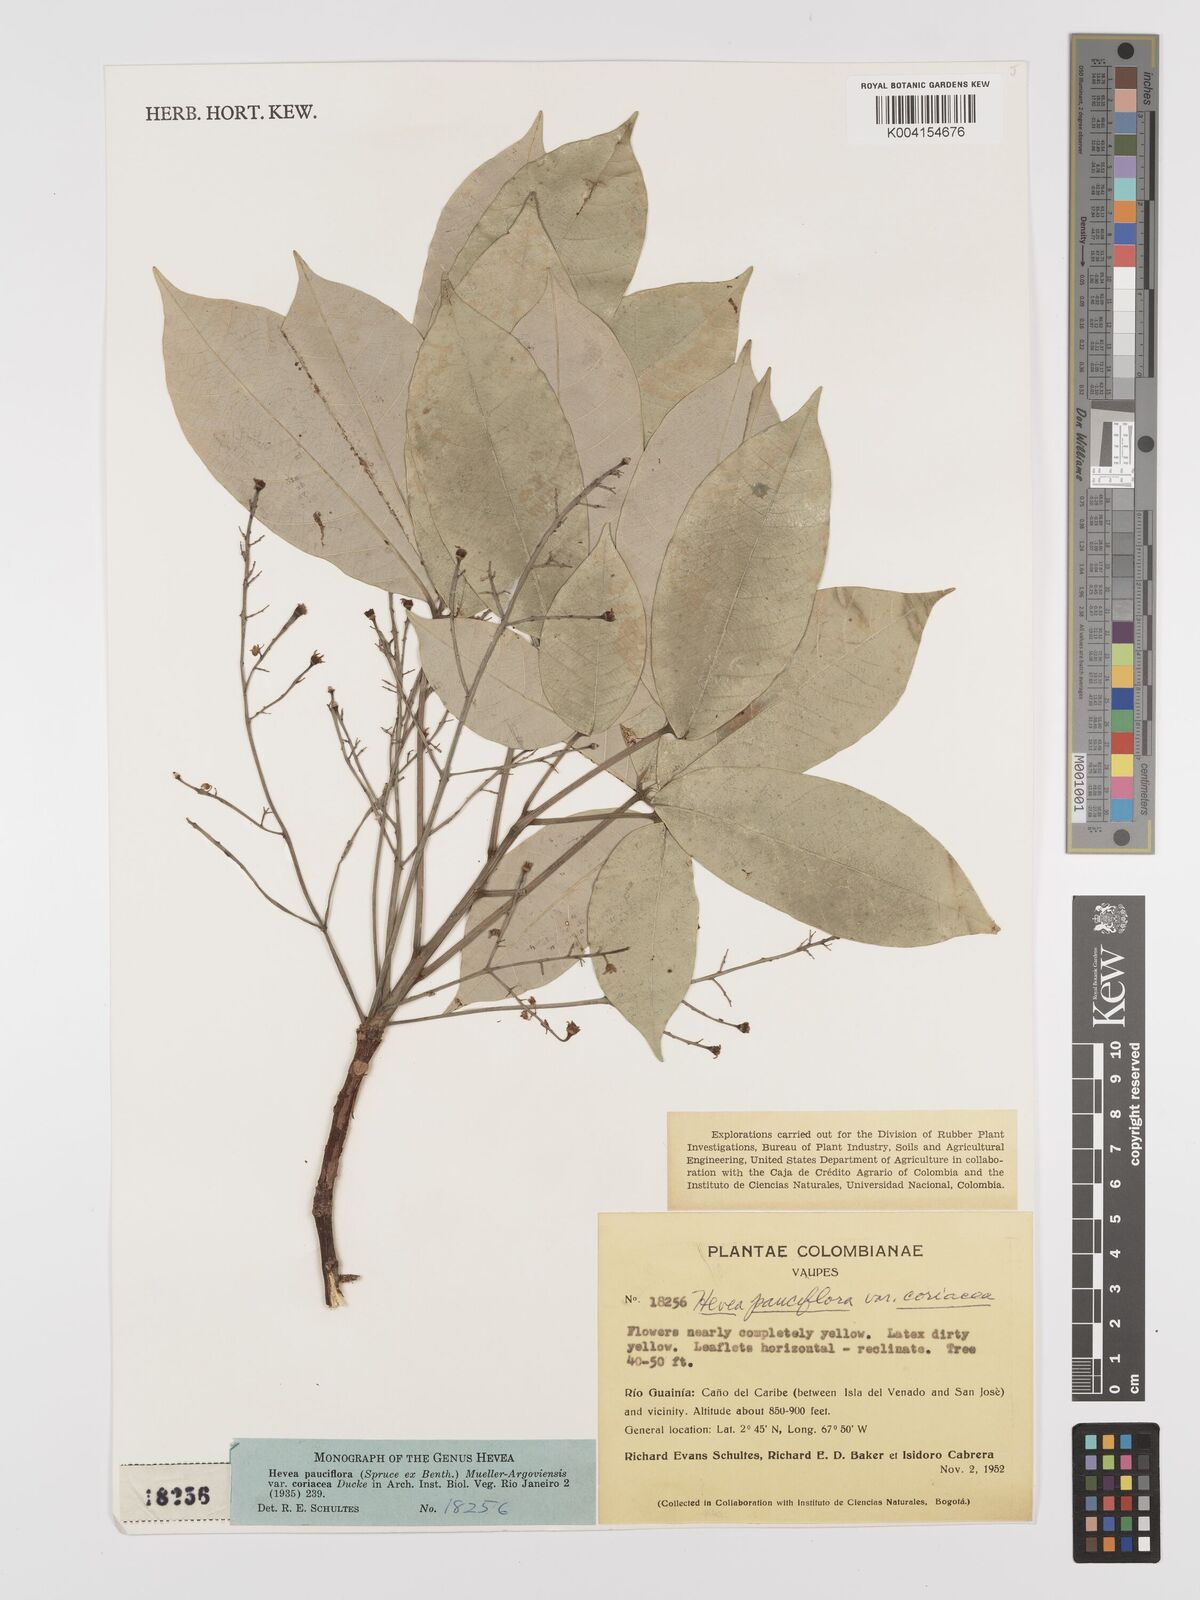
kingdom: Plantae
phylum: Tracheophyta
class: Magnoliopsida
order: Malpighiales
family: Euphorbiaceae
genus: Hevea
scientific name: Hevea pauciflora
